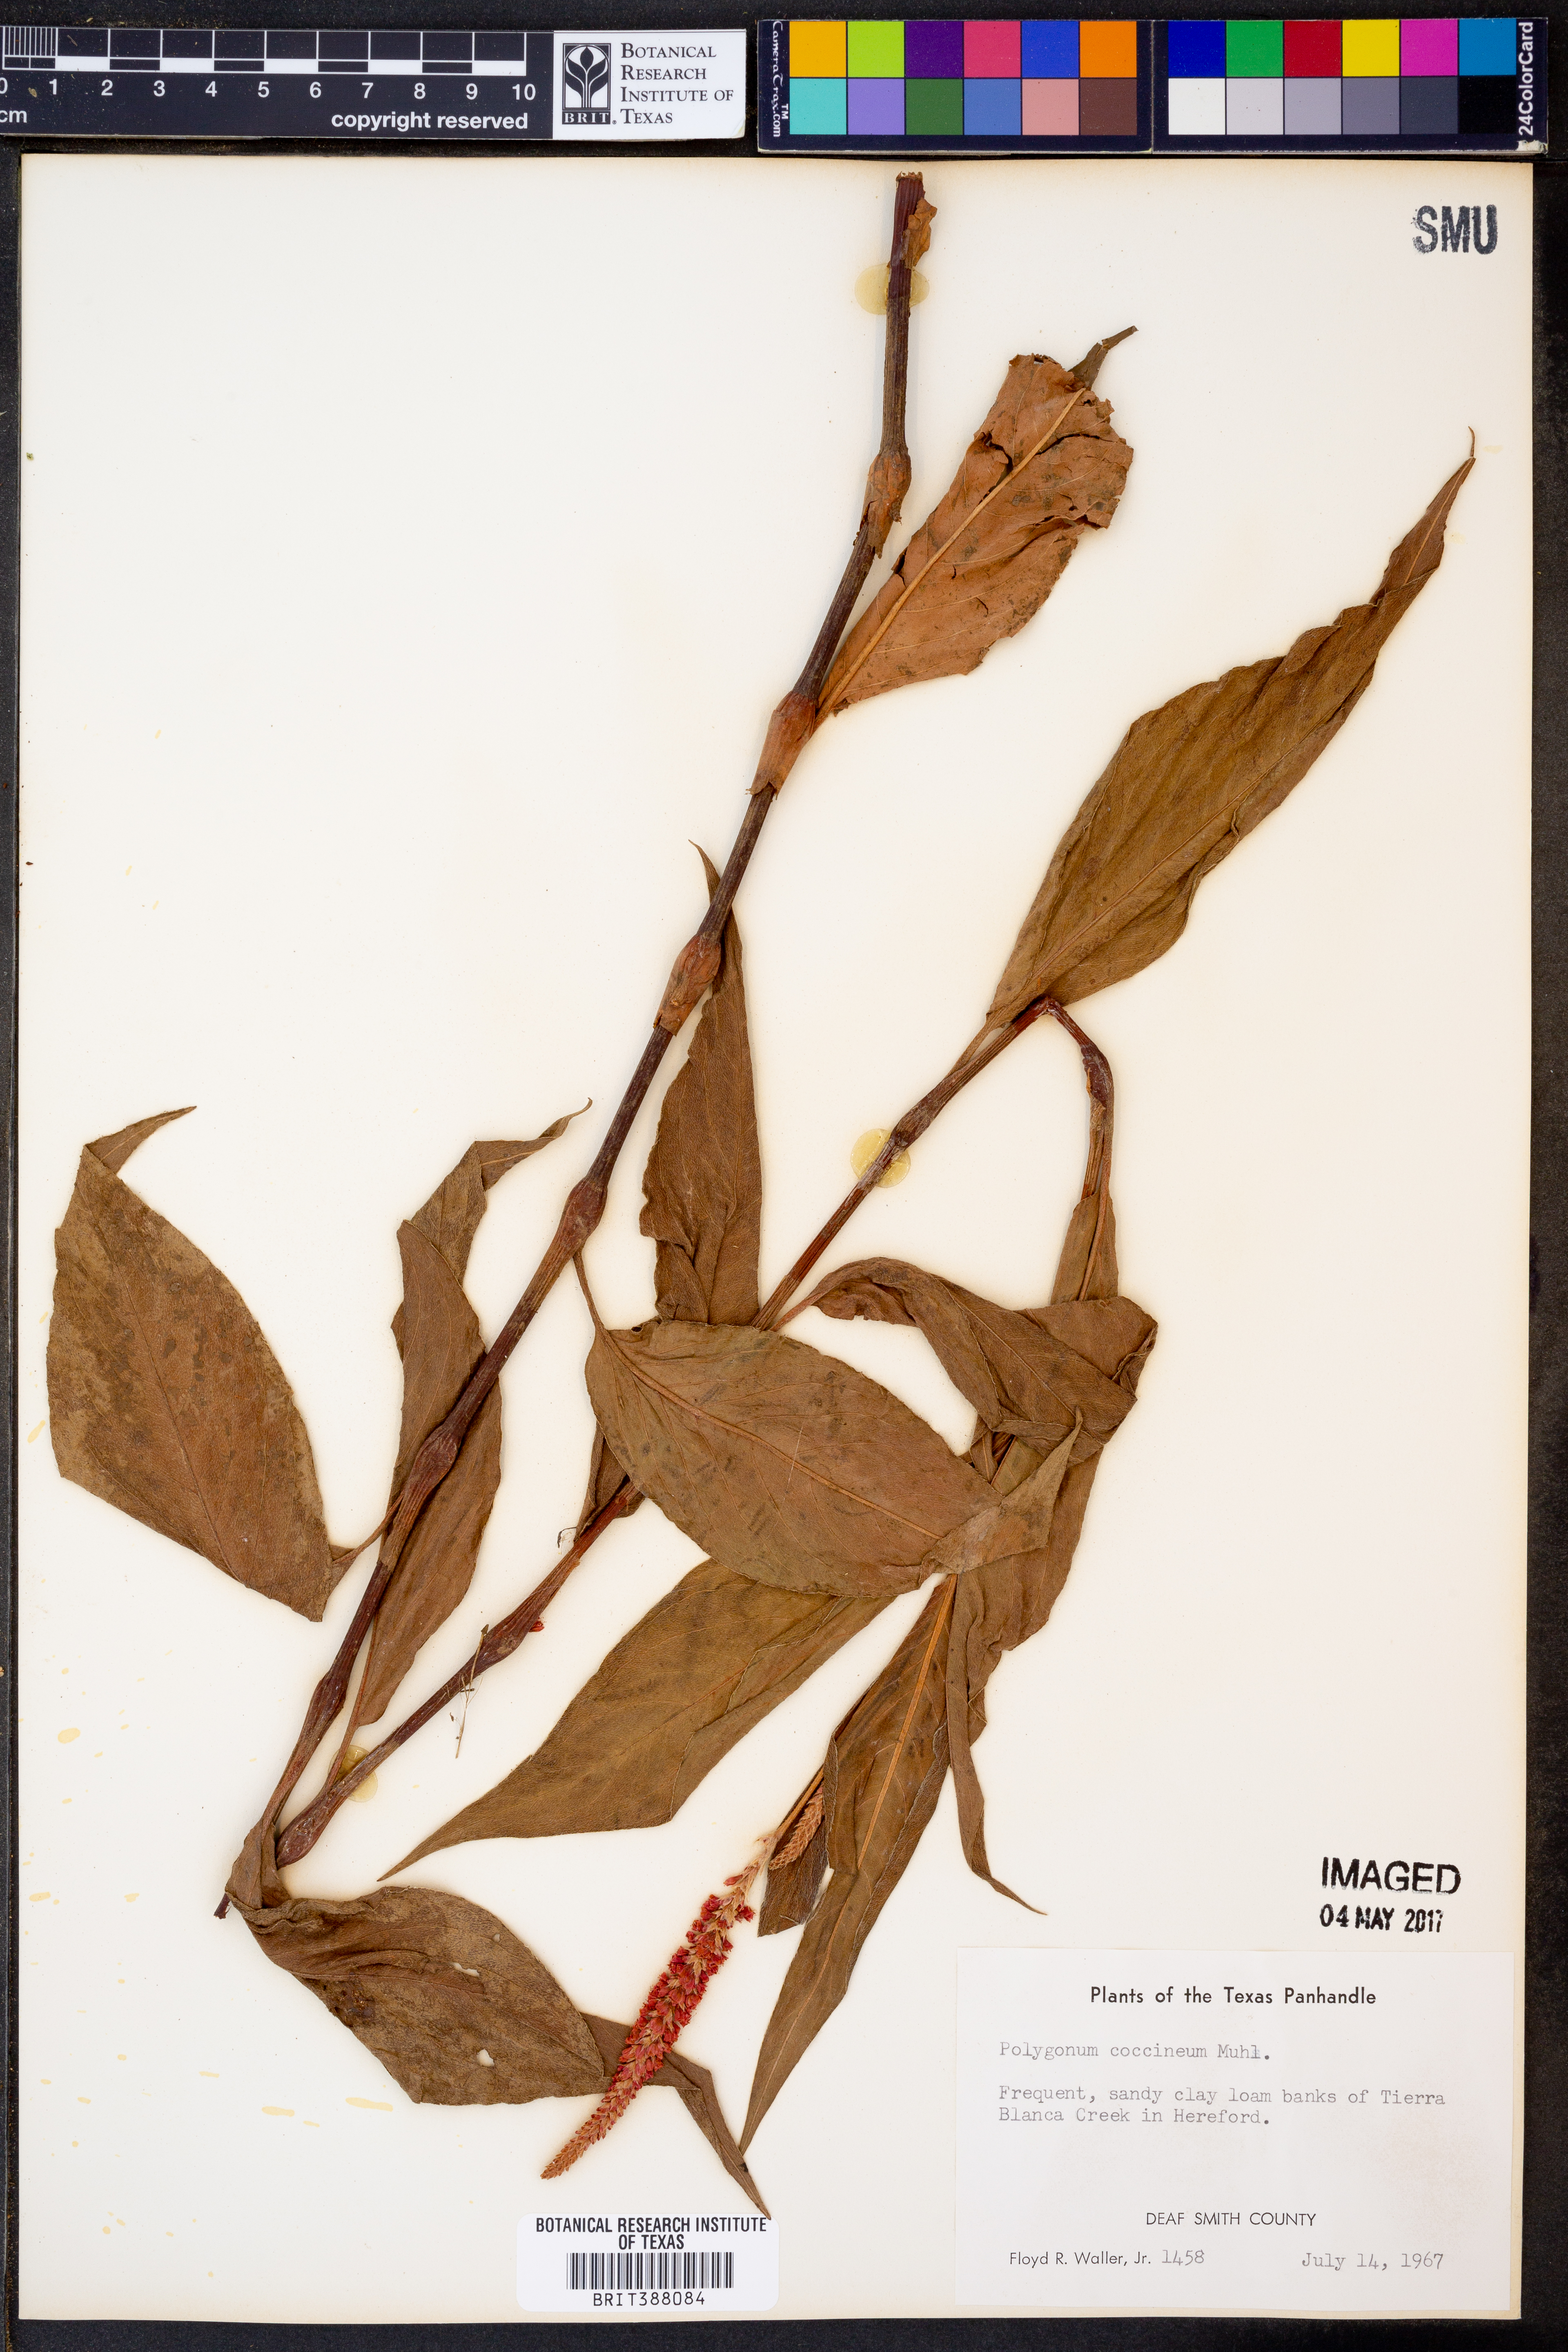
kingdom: Plantae
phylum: Tracheophyta
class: Magnoliopsida
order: Caryophyllales
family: Polygonaceae
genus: Persicaria
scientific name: Persicaria amphibia
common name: Amphibious bistort
